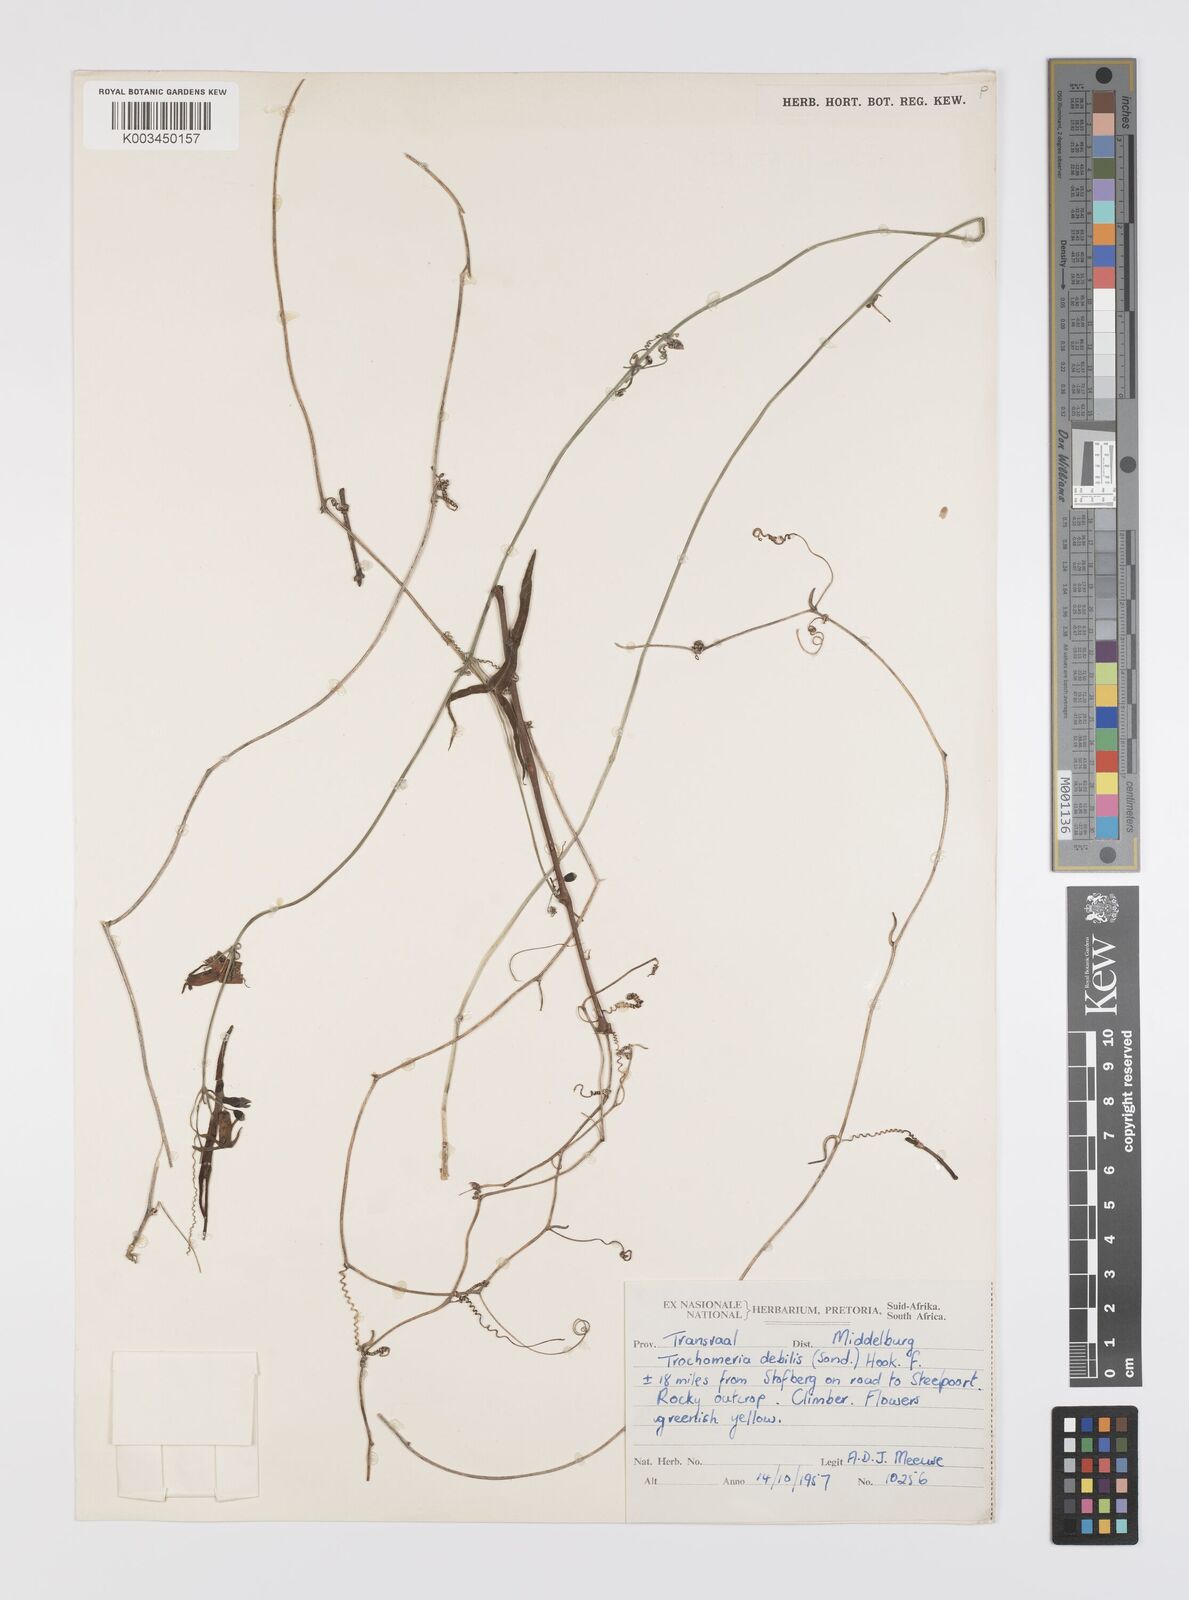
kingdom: Plantae
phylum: Tracheophyta
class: Magnoliopsida
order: Cucurbitales
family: Cucurbitaceae
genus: Trochomeria
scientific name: Trochomeria debilis
